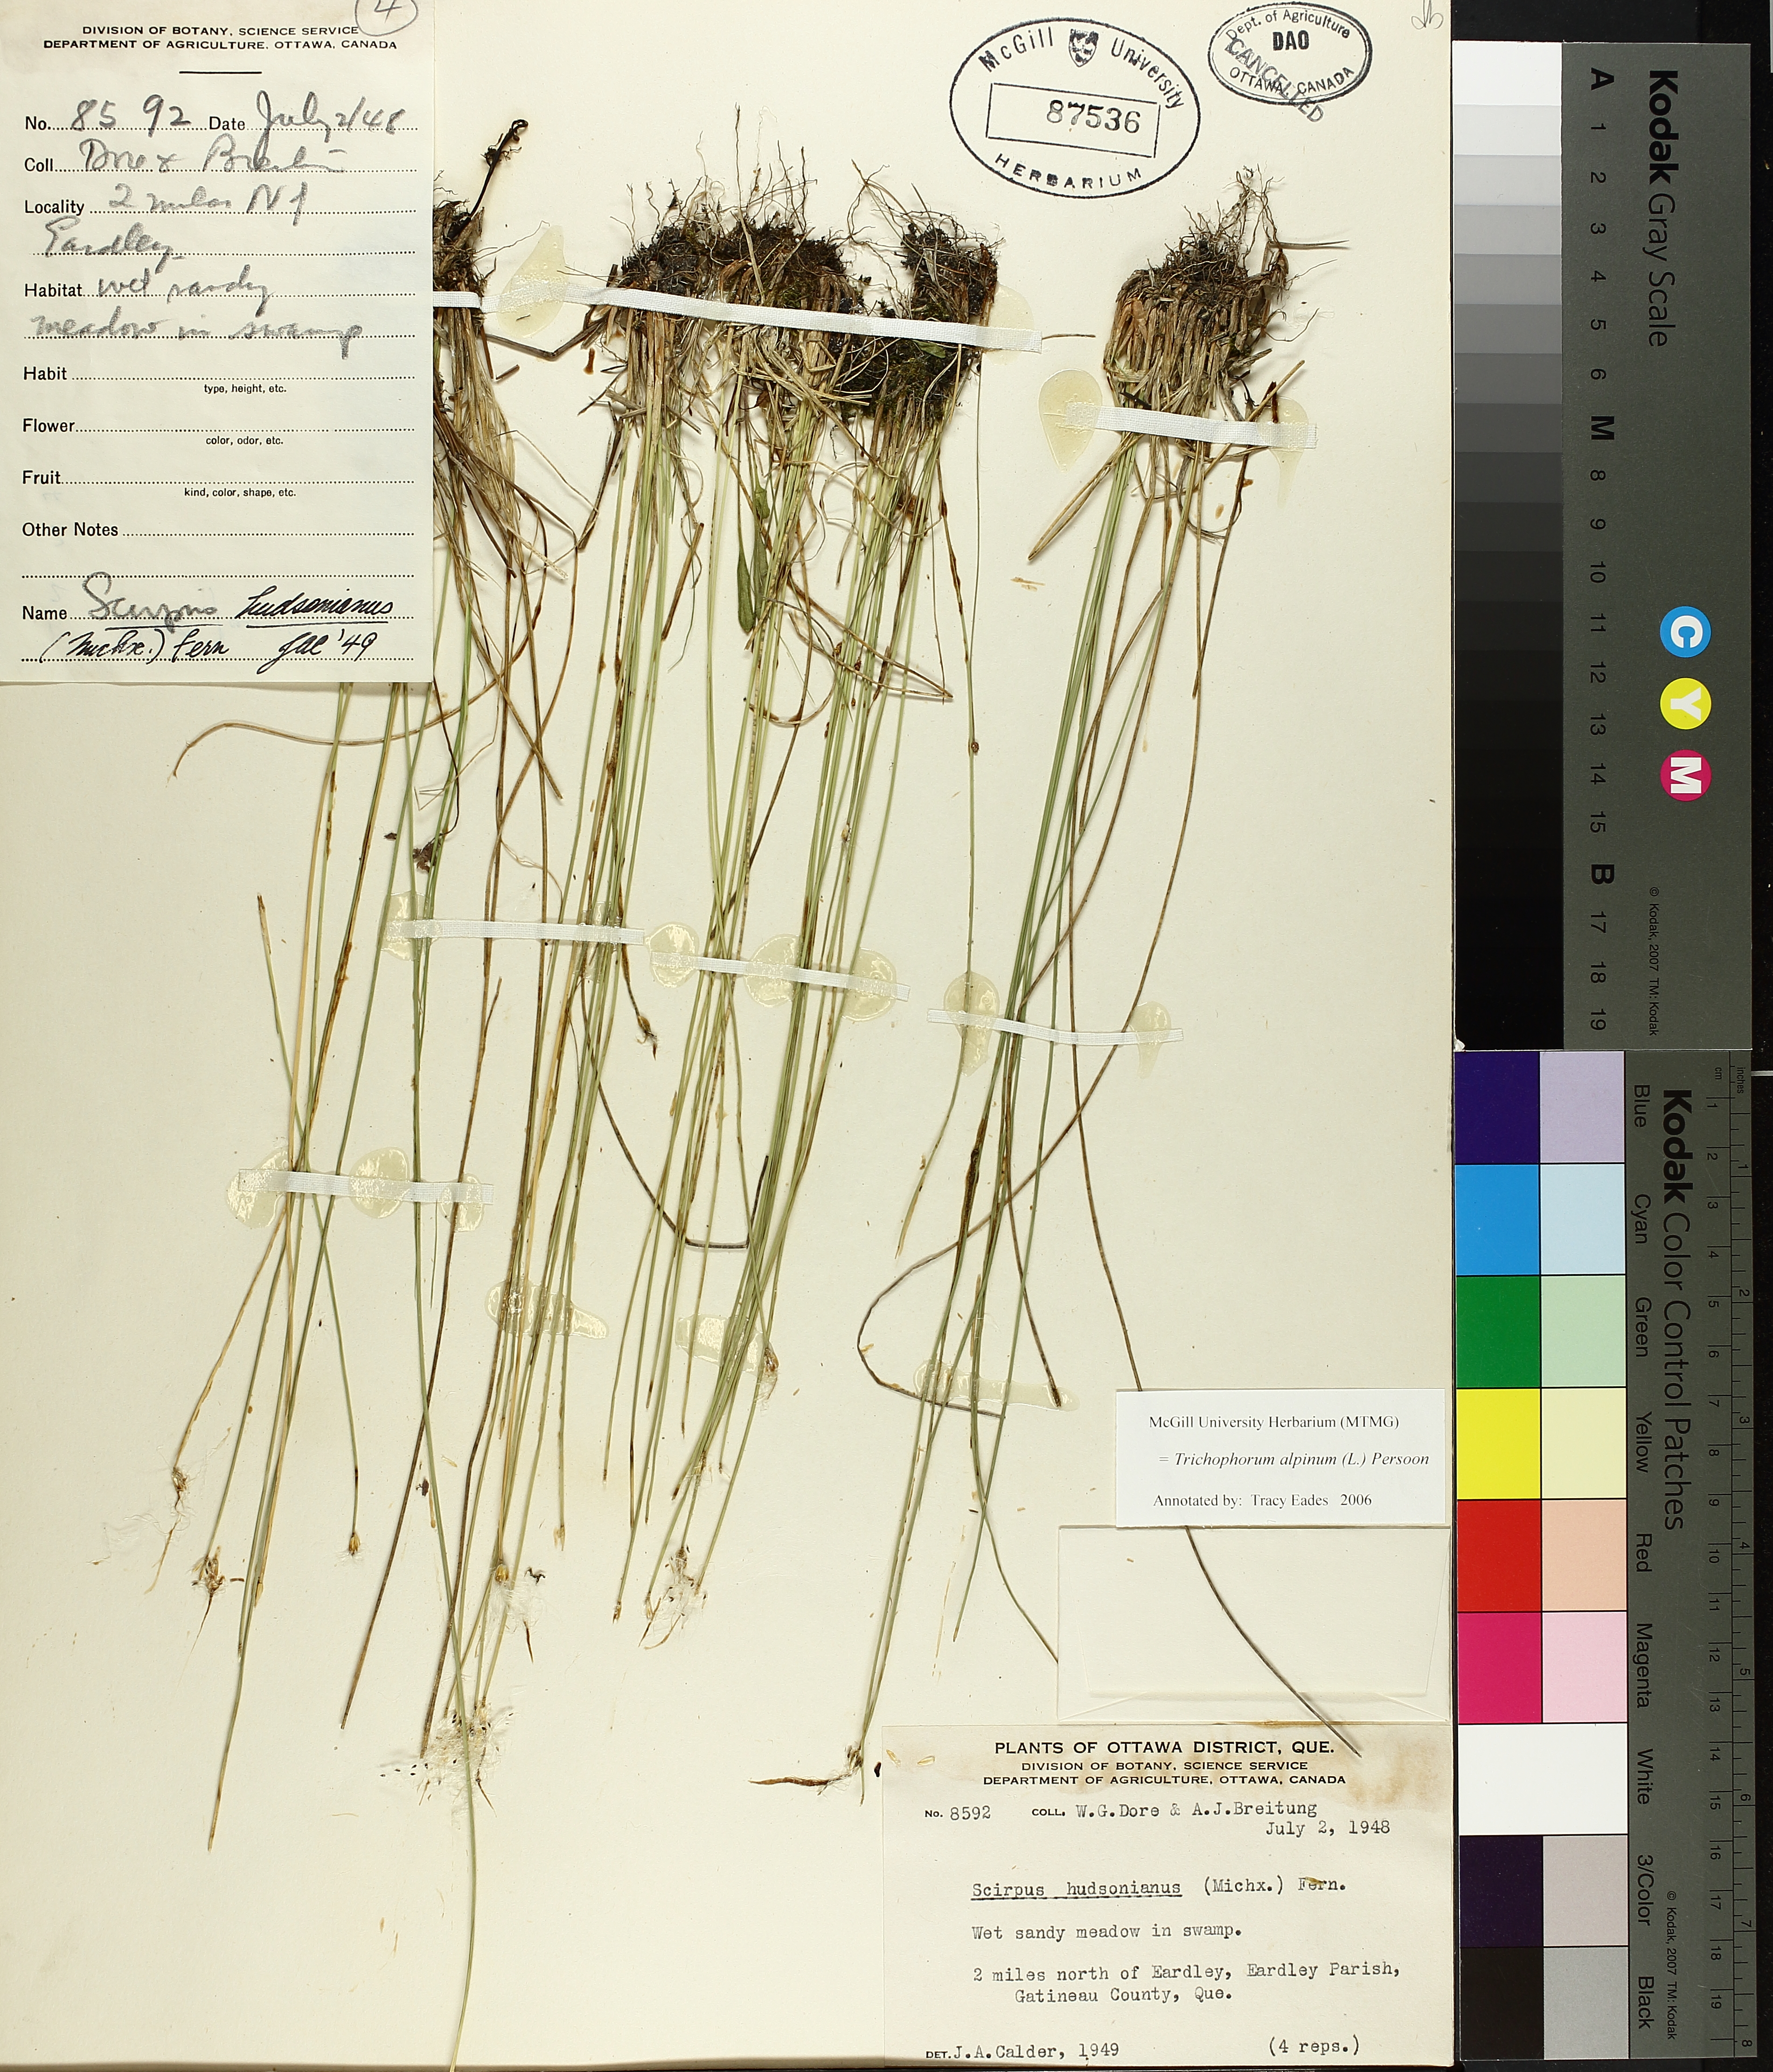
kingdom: Plantae
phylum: Tracheophyta
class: Liliopsida
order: Poales
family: Cyperaceae
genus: Trichophorum
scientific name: Trichophorum alpinum
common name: Alpine bulrush
